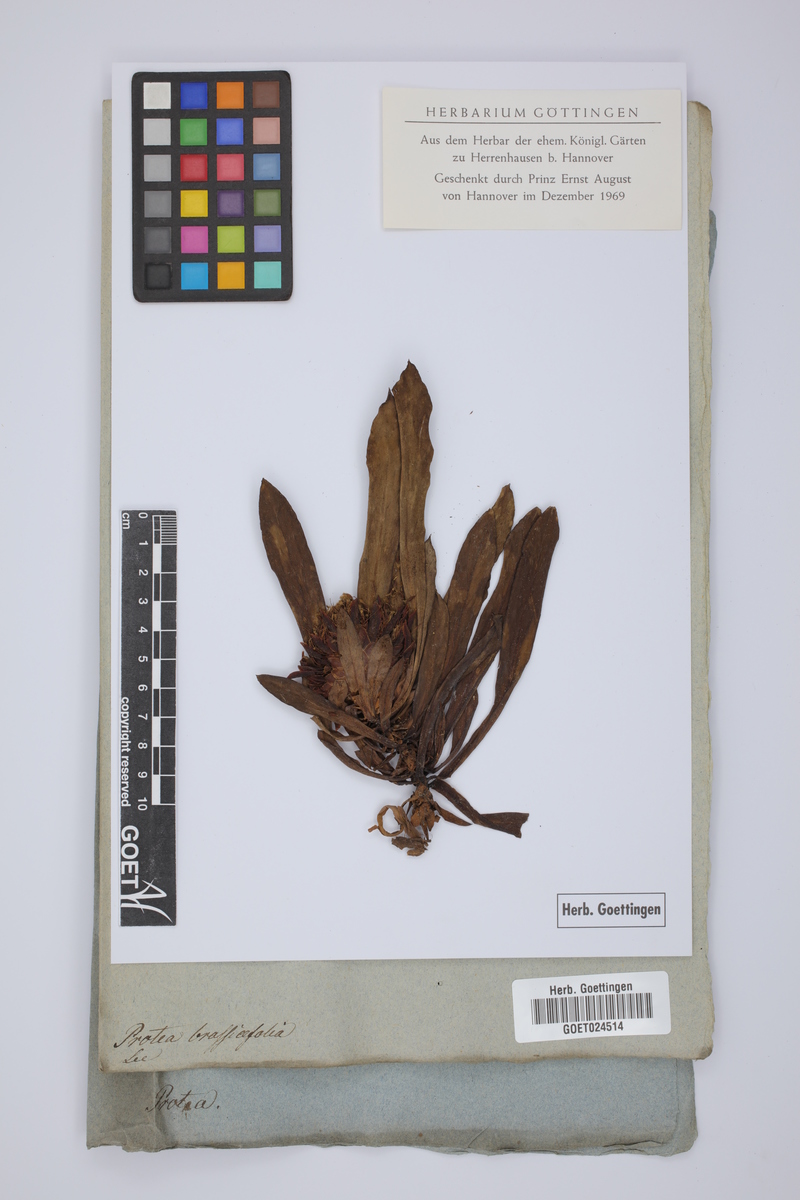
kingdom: Plantae
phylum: Tracheophyta
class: Magnoliopsida
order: Proteales
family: Proteaceae
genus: Protea
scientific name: Protea brassicifolia
